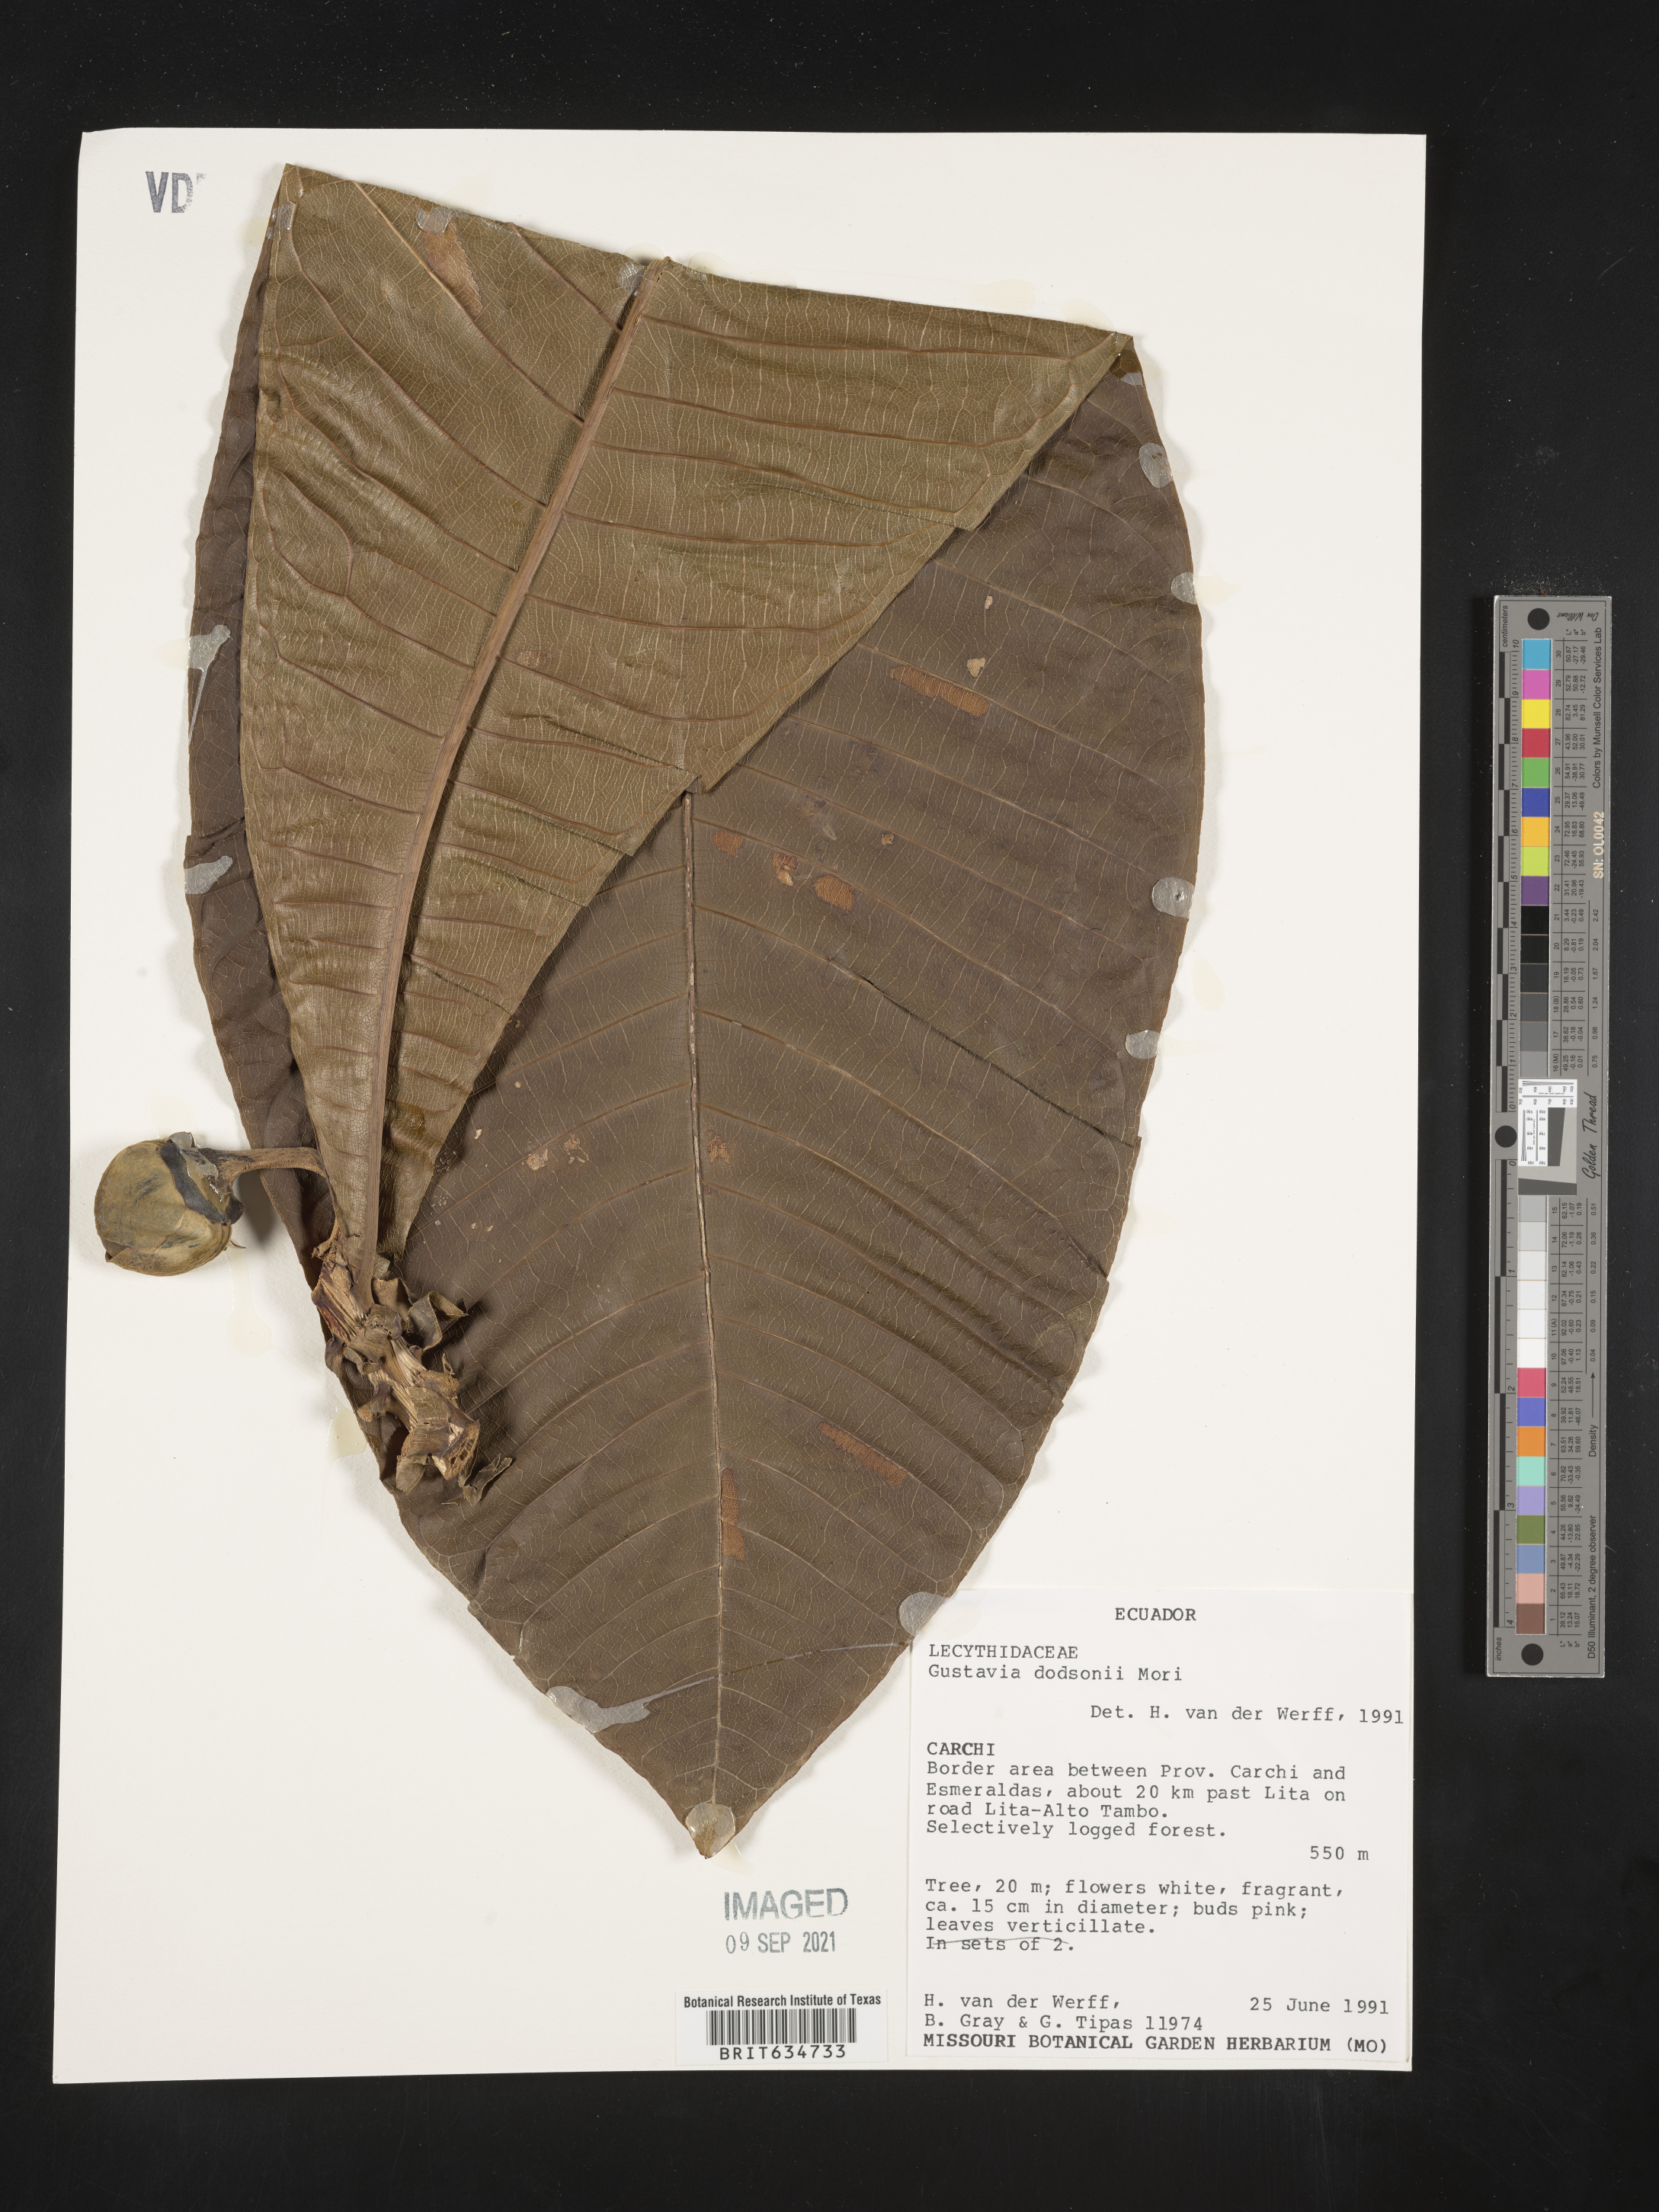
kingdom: Plantae
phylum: Tracheophyta
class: Magnoliopsida
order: Ericales
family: Lecythidaceae
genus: Gustavia
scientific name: Gustavia
